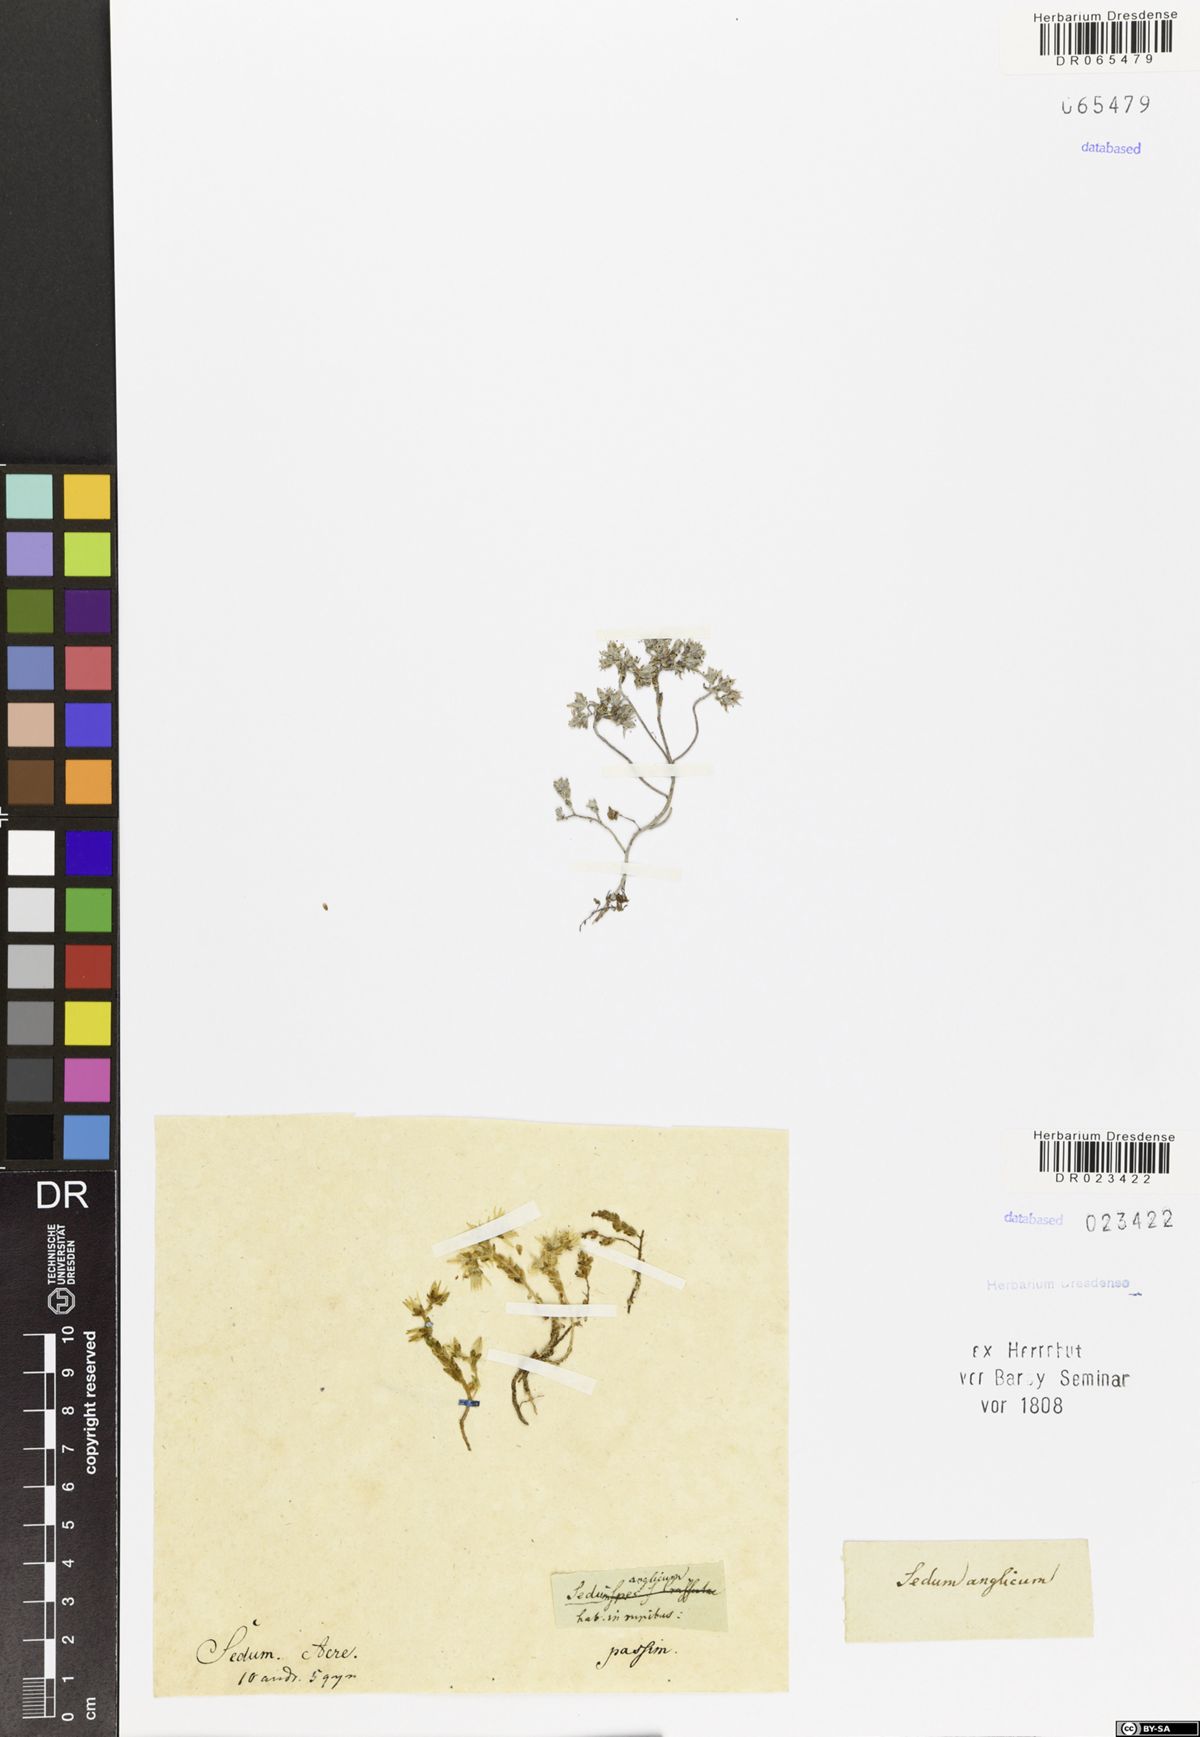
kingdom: Plantae
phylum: Tracheophyta
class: Magnoliopsida
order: Saxifragales
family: Crassulaceae
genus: Sedum
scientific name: Sedum acre
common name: Biting stonecrop
